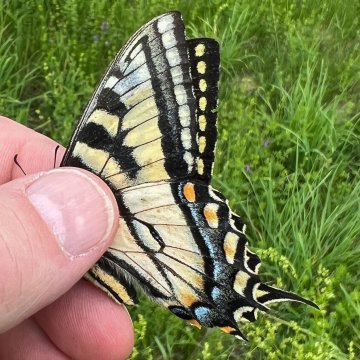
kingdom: Animalia
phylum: Arthropoda
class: Insecta
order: Lepidoptera
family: Papilionidae
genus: Pterourus
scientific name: Pterourus canadensis
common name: Canadian Tiger Swallowtail
